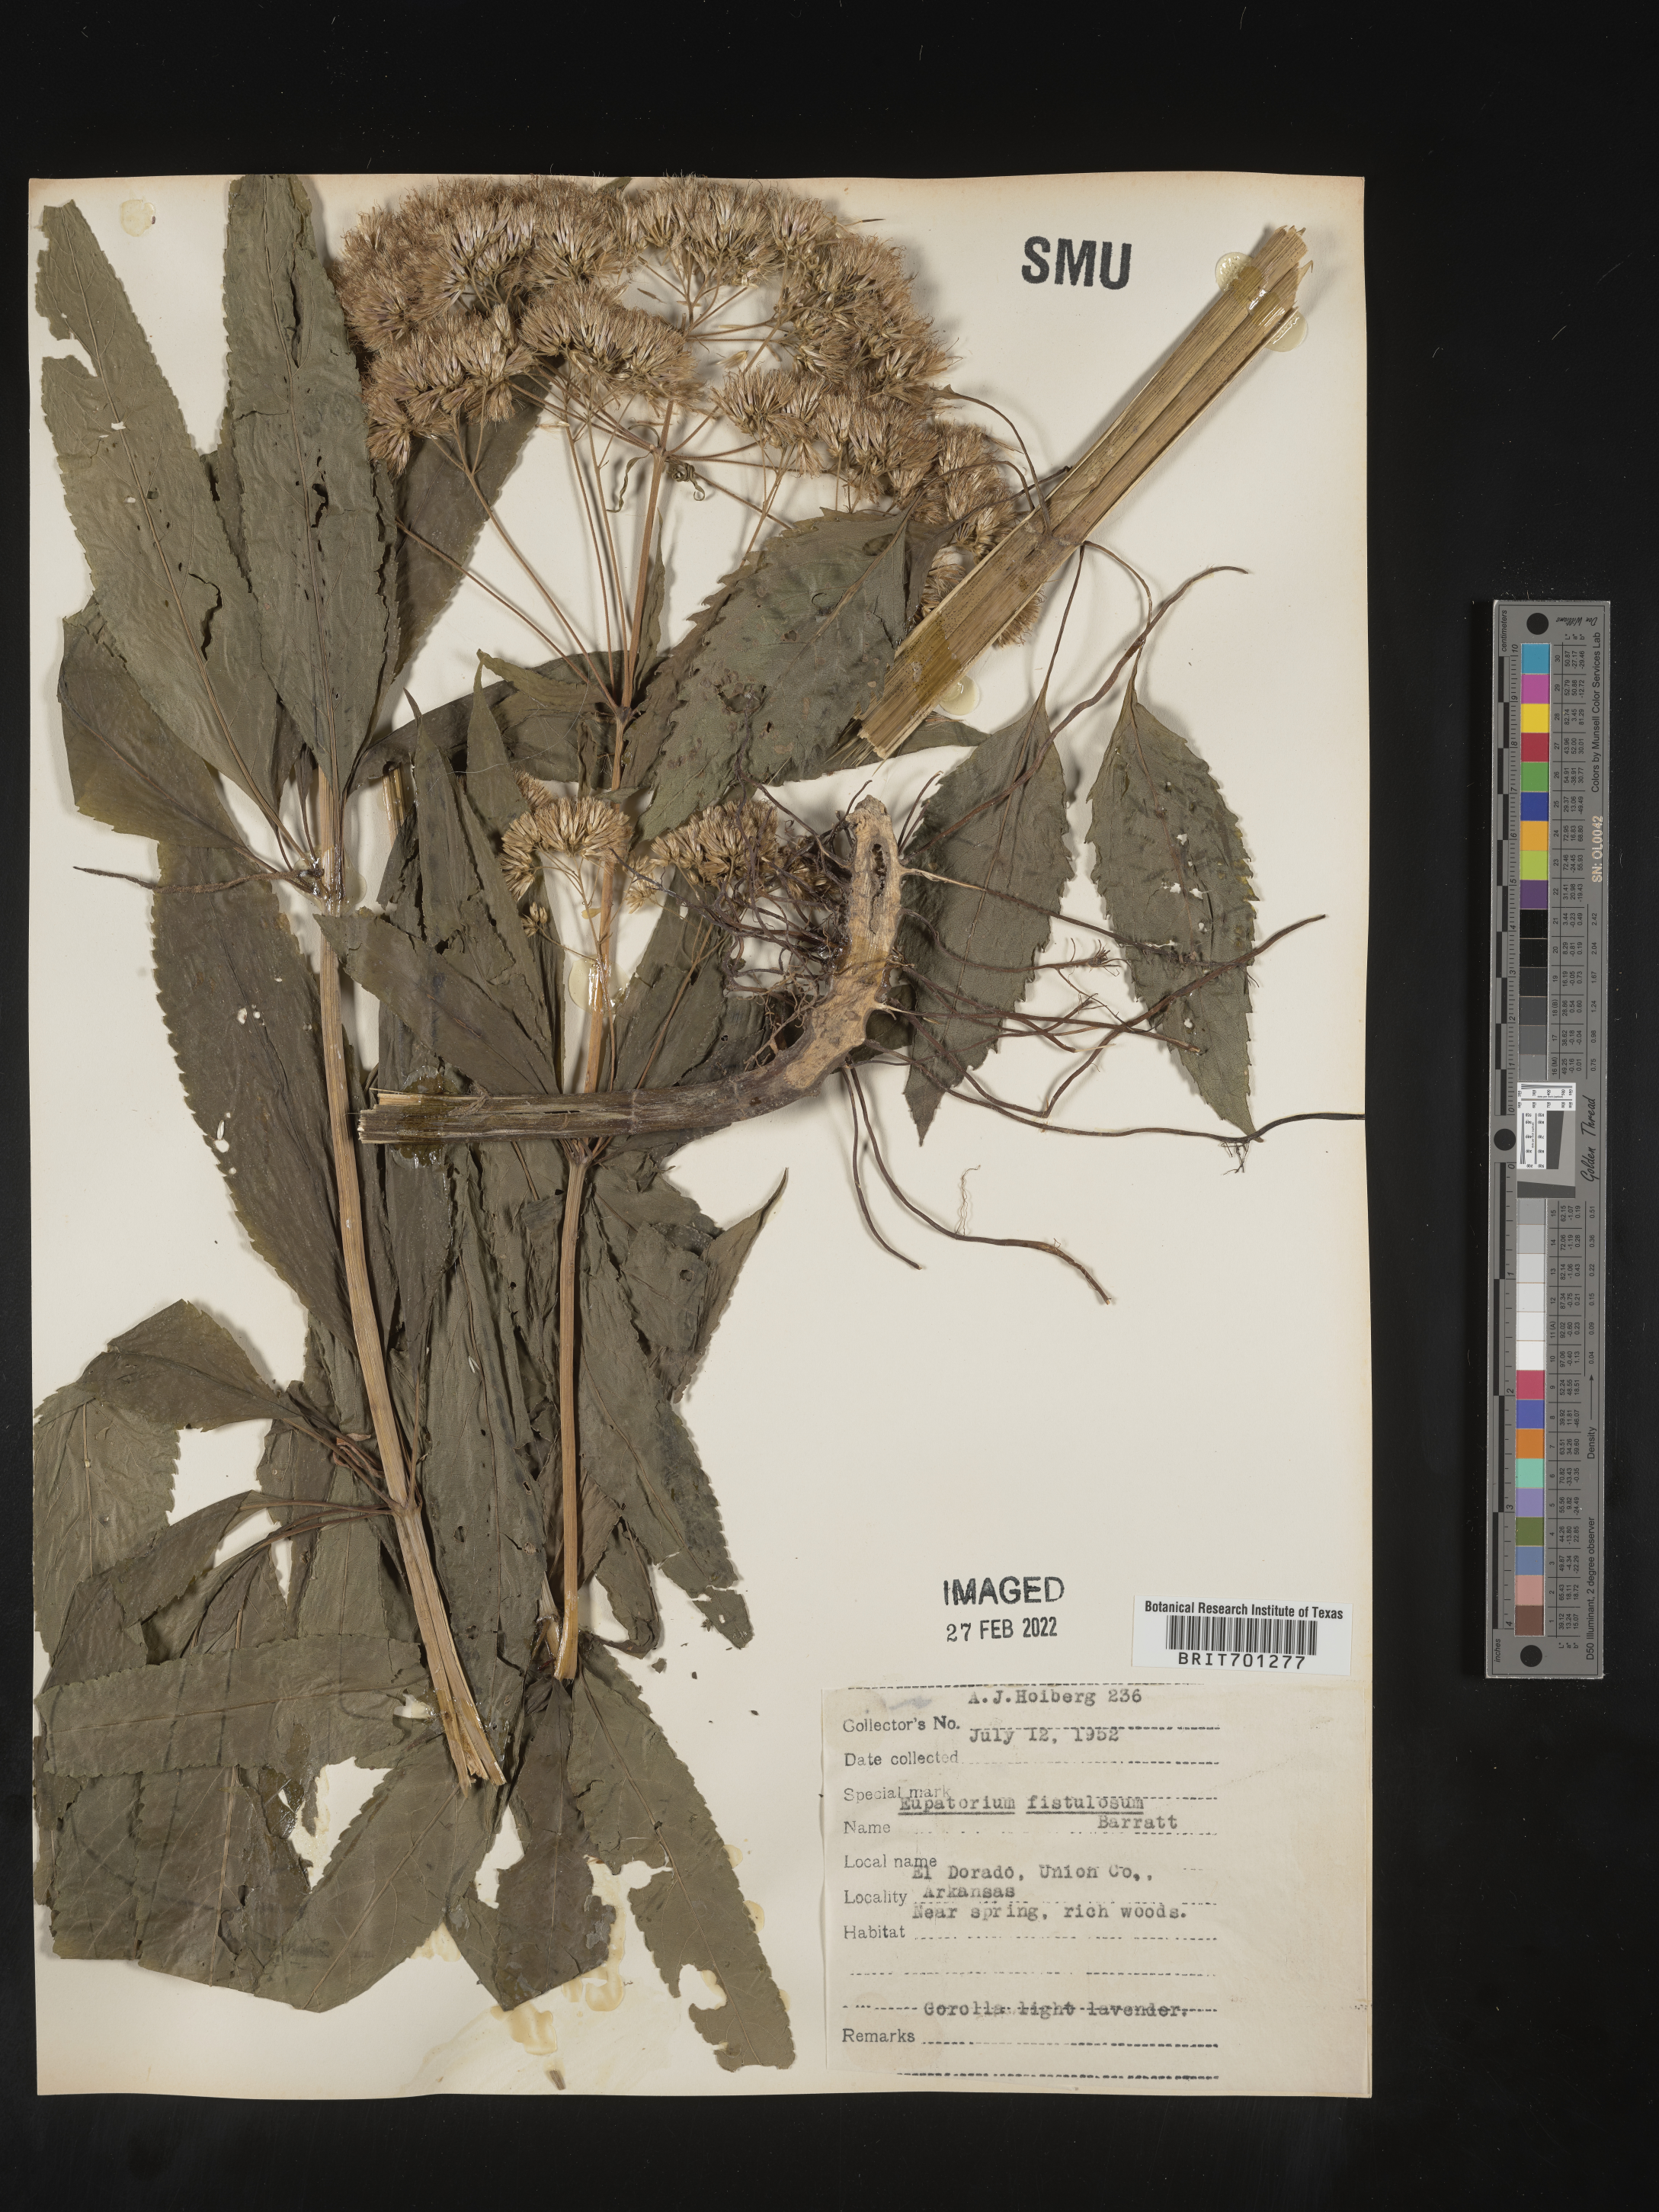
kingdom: Plantae
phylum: Tracheophyta
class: Magnoliopsida
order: Asterales
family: Asteraceae
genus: Eutrochium
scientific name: Eutrochium fistulosum
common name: Trumpetweed
